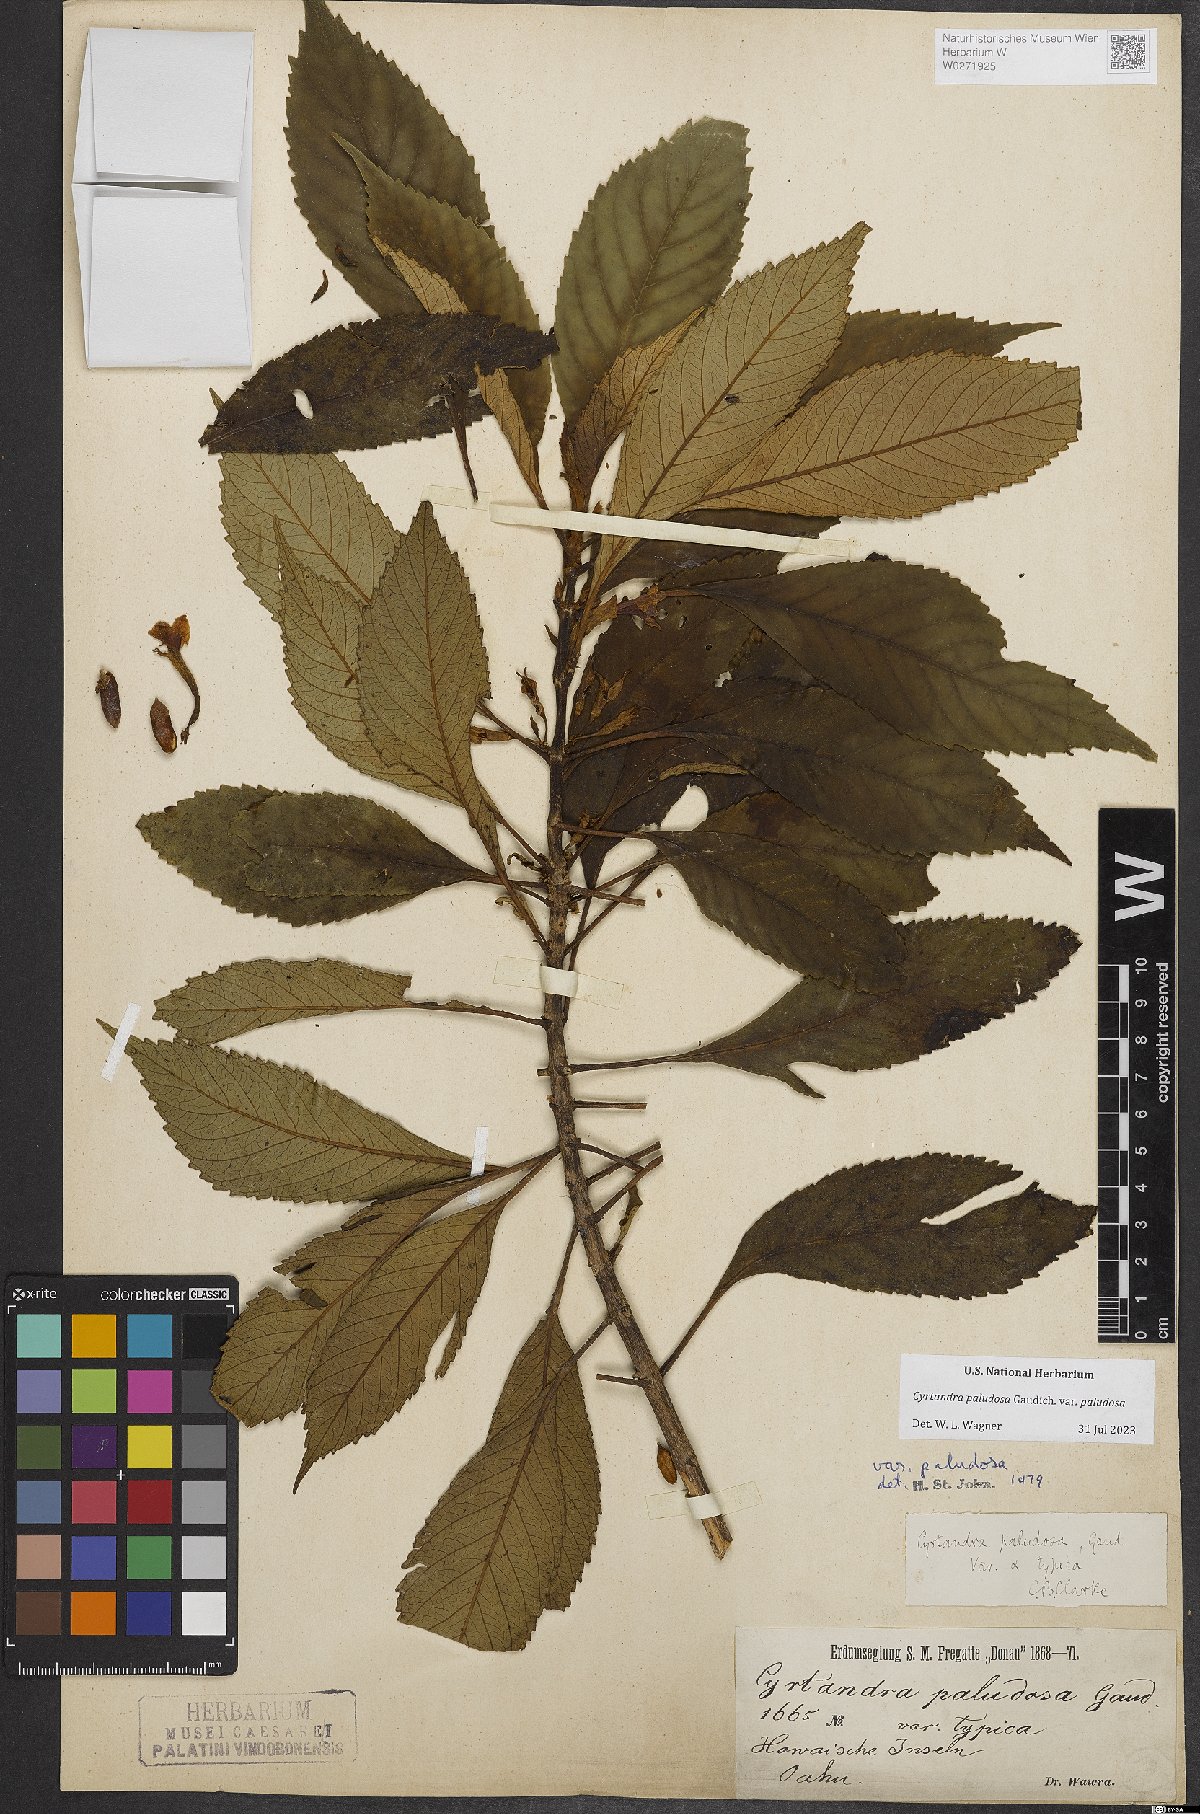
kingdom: Plantae
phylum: Tracheophyta
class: Magnoliopsida
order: Lamiales
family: Gesneriaceae
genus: Cyrtandra
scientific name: Cyrtandra paludosa
